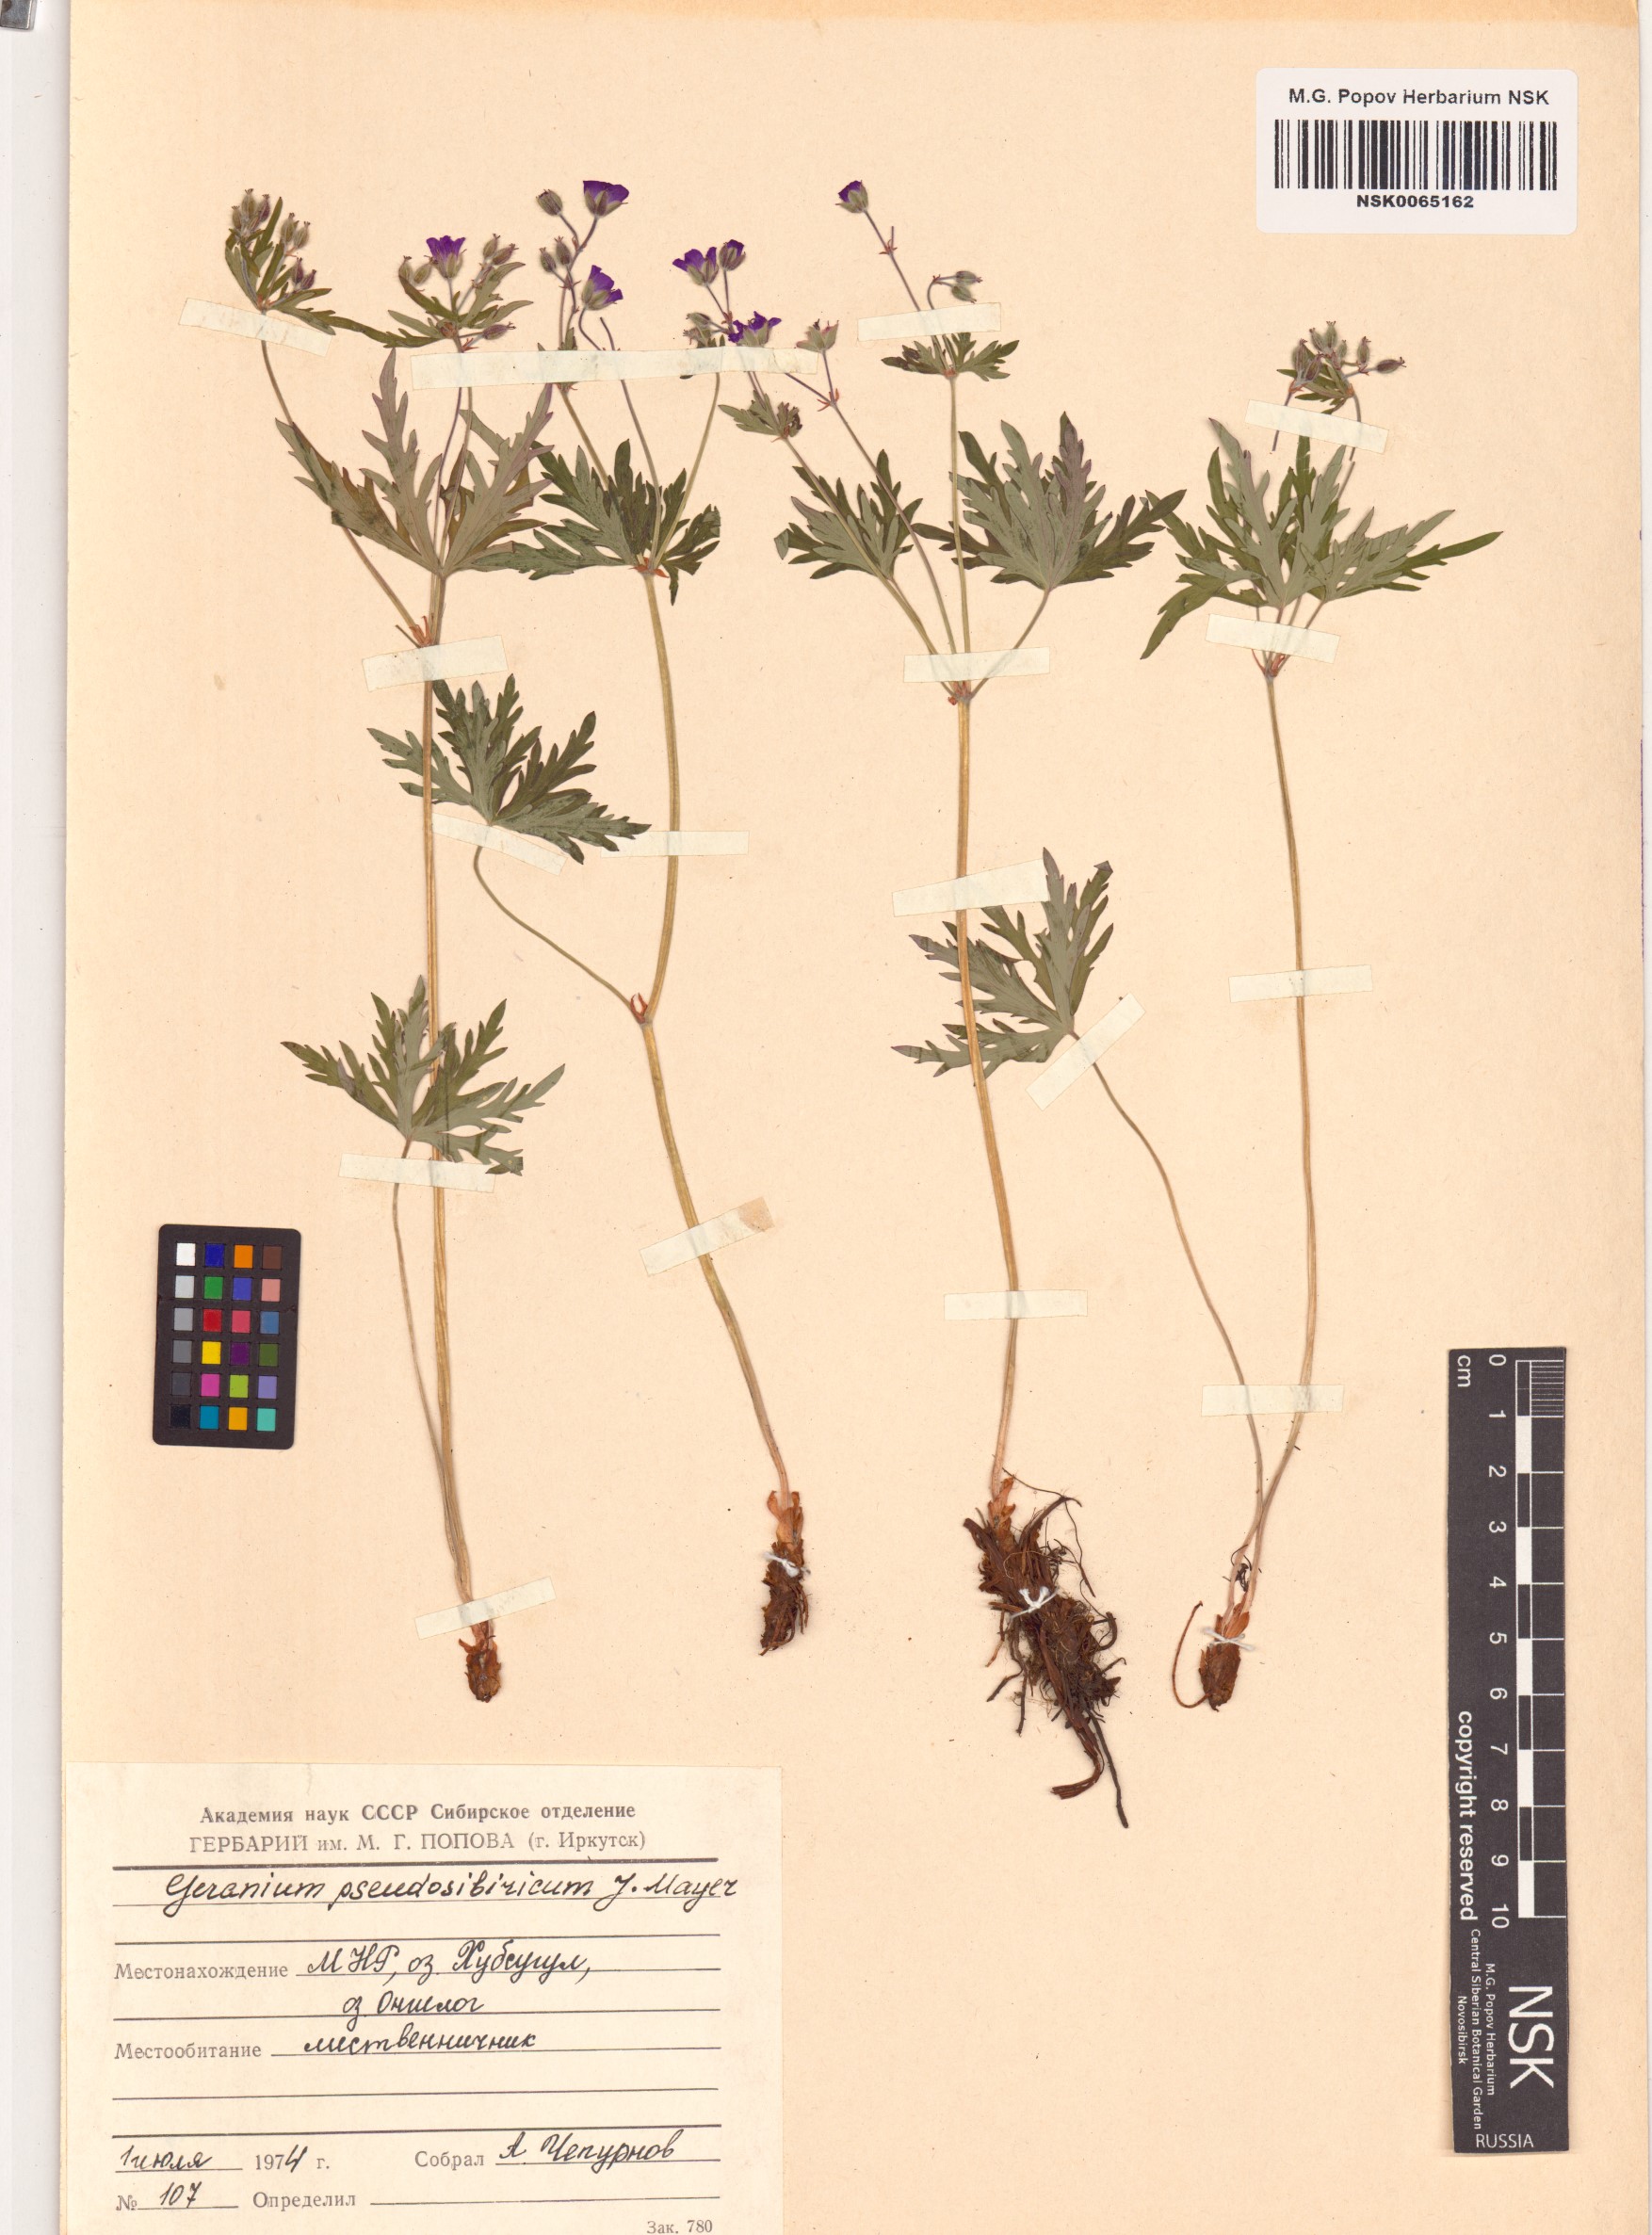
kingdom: Plantae
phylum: Tracheophyta
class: Magnoliopsida
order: Geraniales
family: Geraniaceae
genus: Geranium
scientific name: Geranium pseudosibiricum
